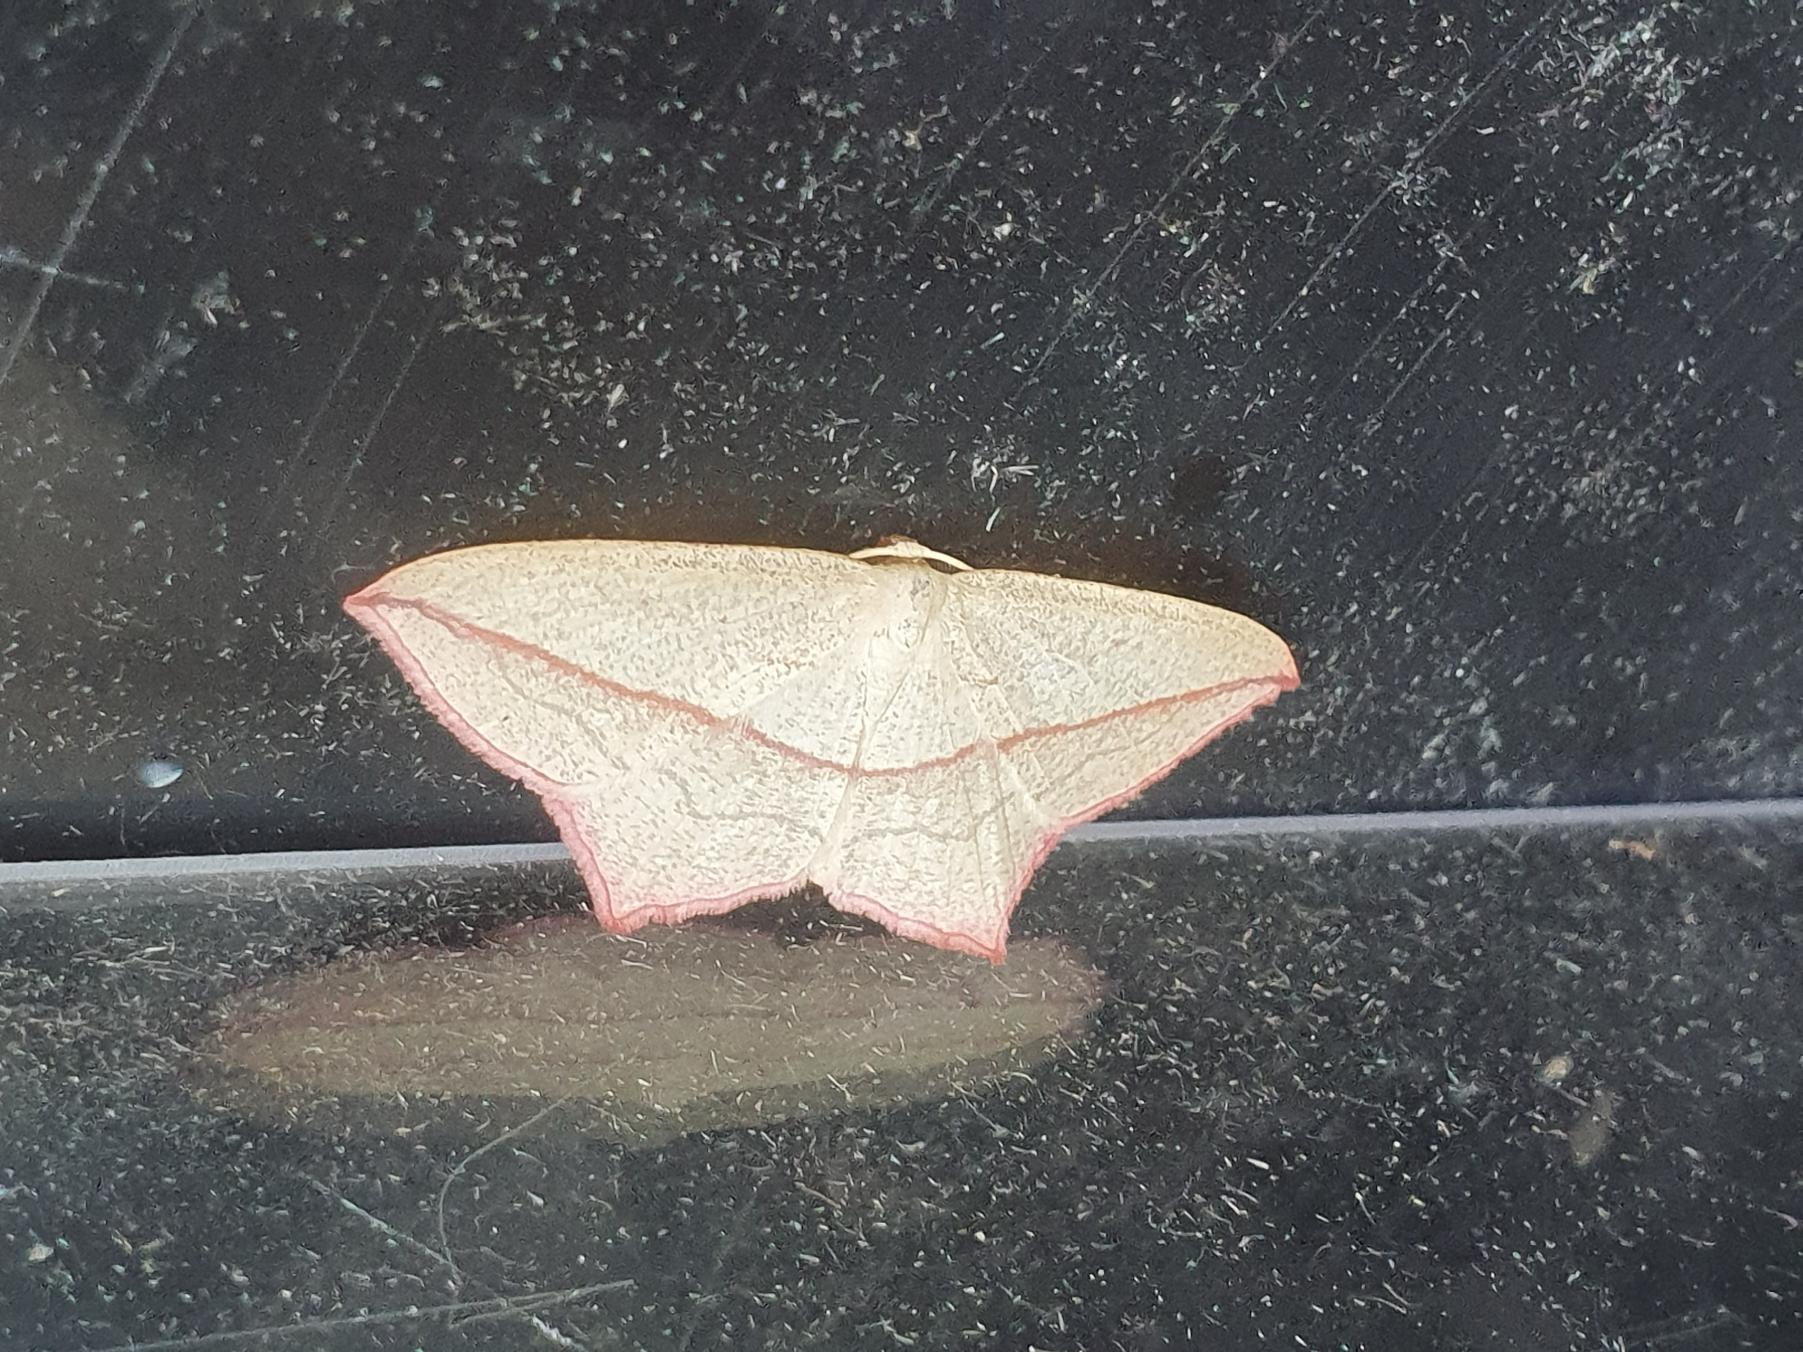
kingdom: Animalia
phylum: Arthropoda
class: Insecta
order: Lepidoptera
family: Geometridae
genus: Timandra
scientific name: Timandra comae
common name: Gul syremåler
